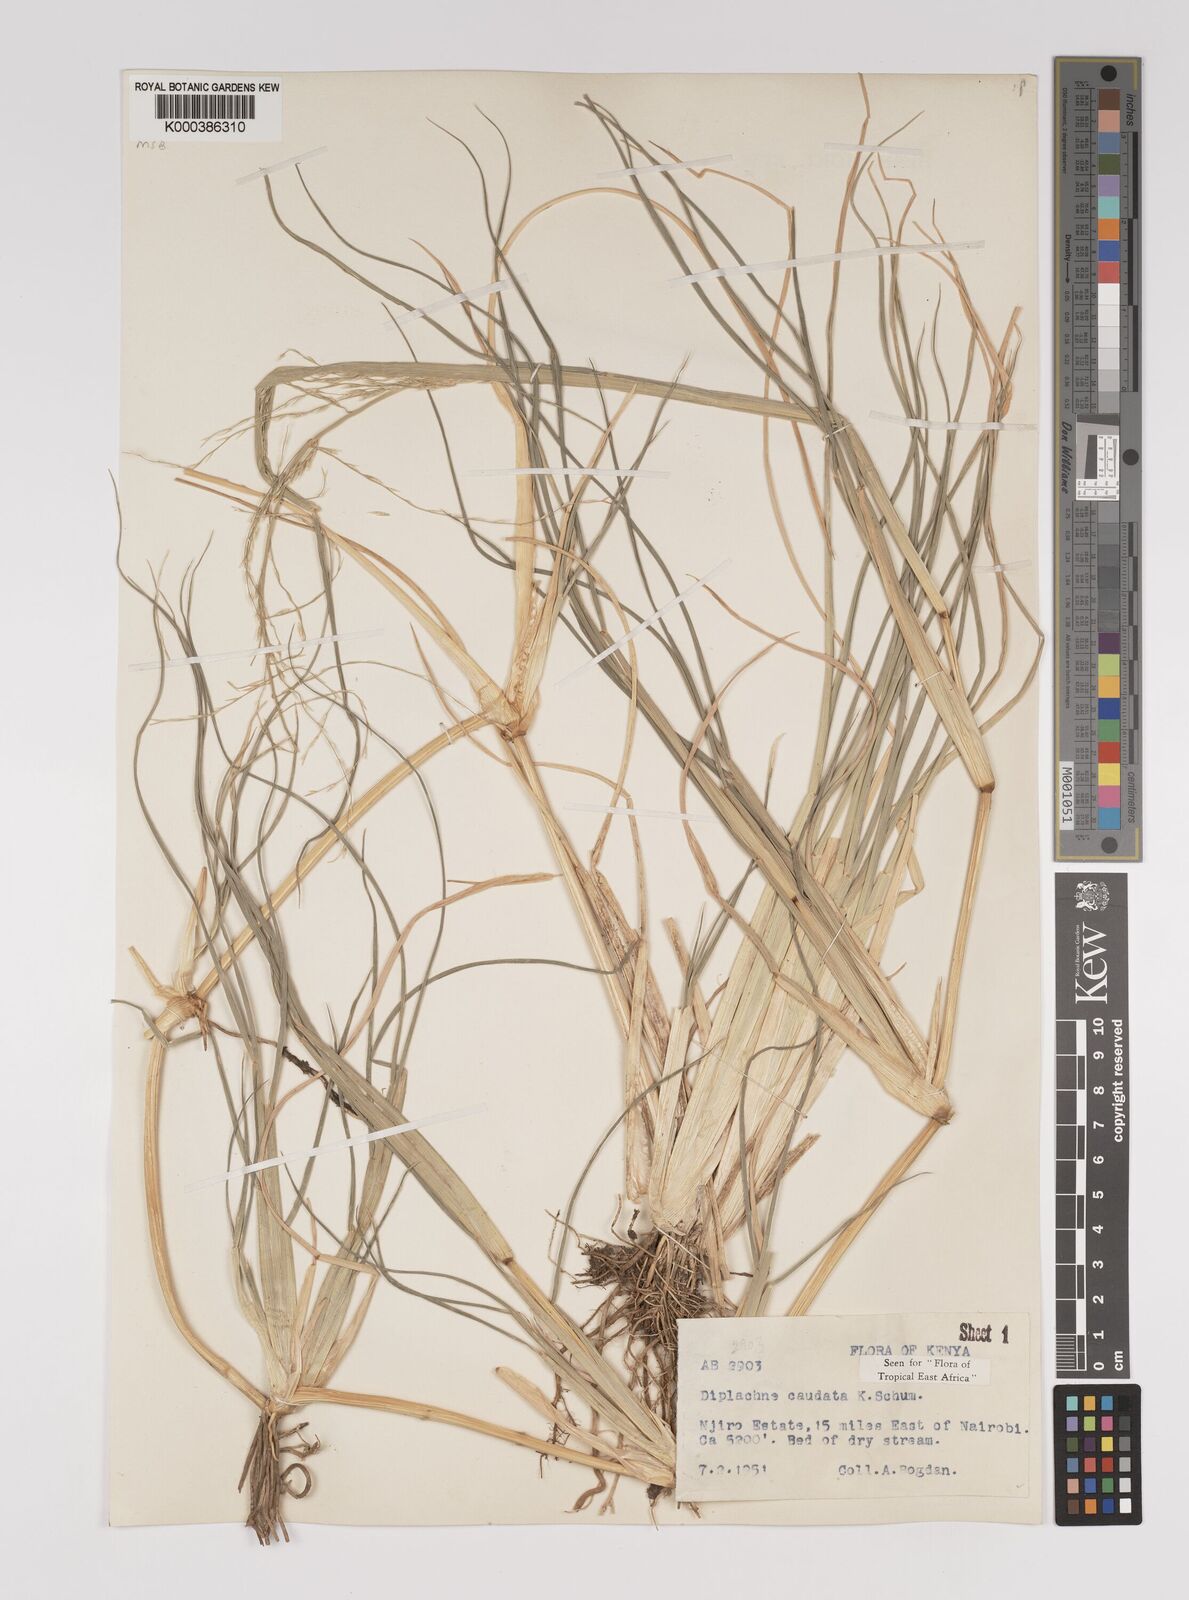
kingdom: Plantae
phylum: Tracheophyta
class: Liliopsida
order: Poales
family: Poaceae
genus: Leptochloa
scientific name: Leptochloa caudata
